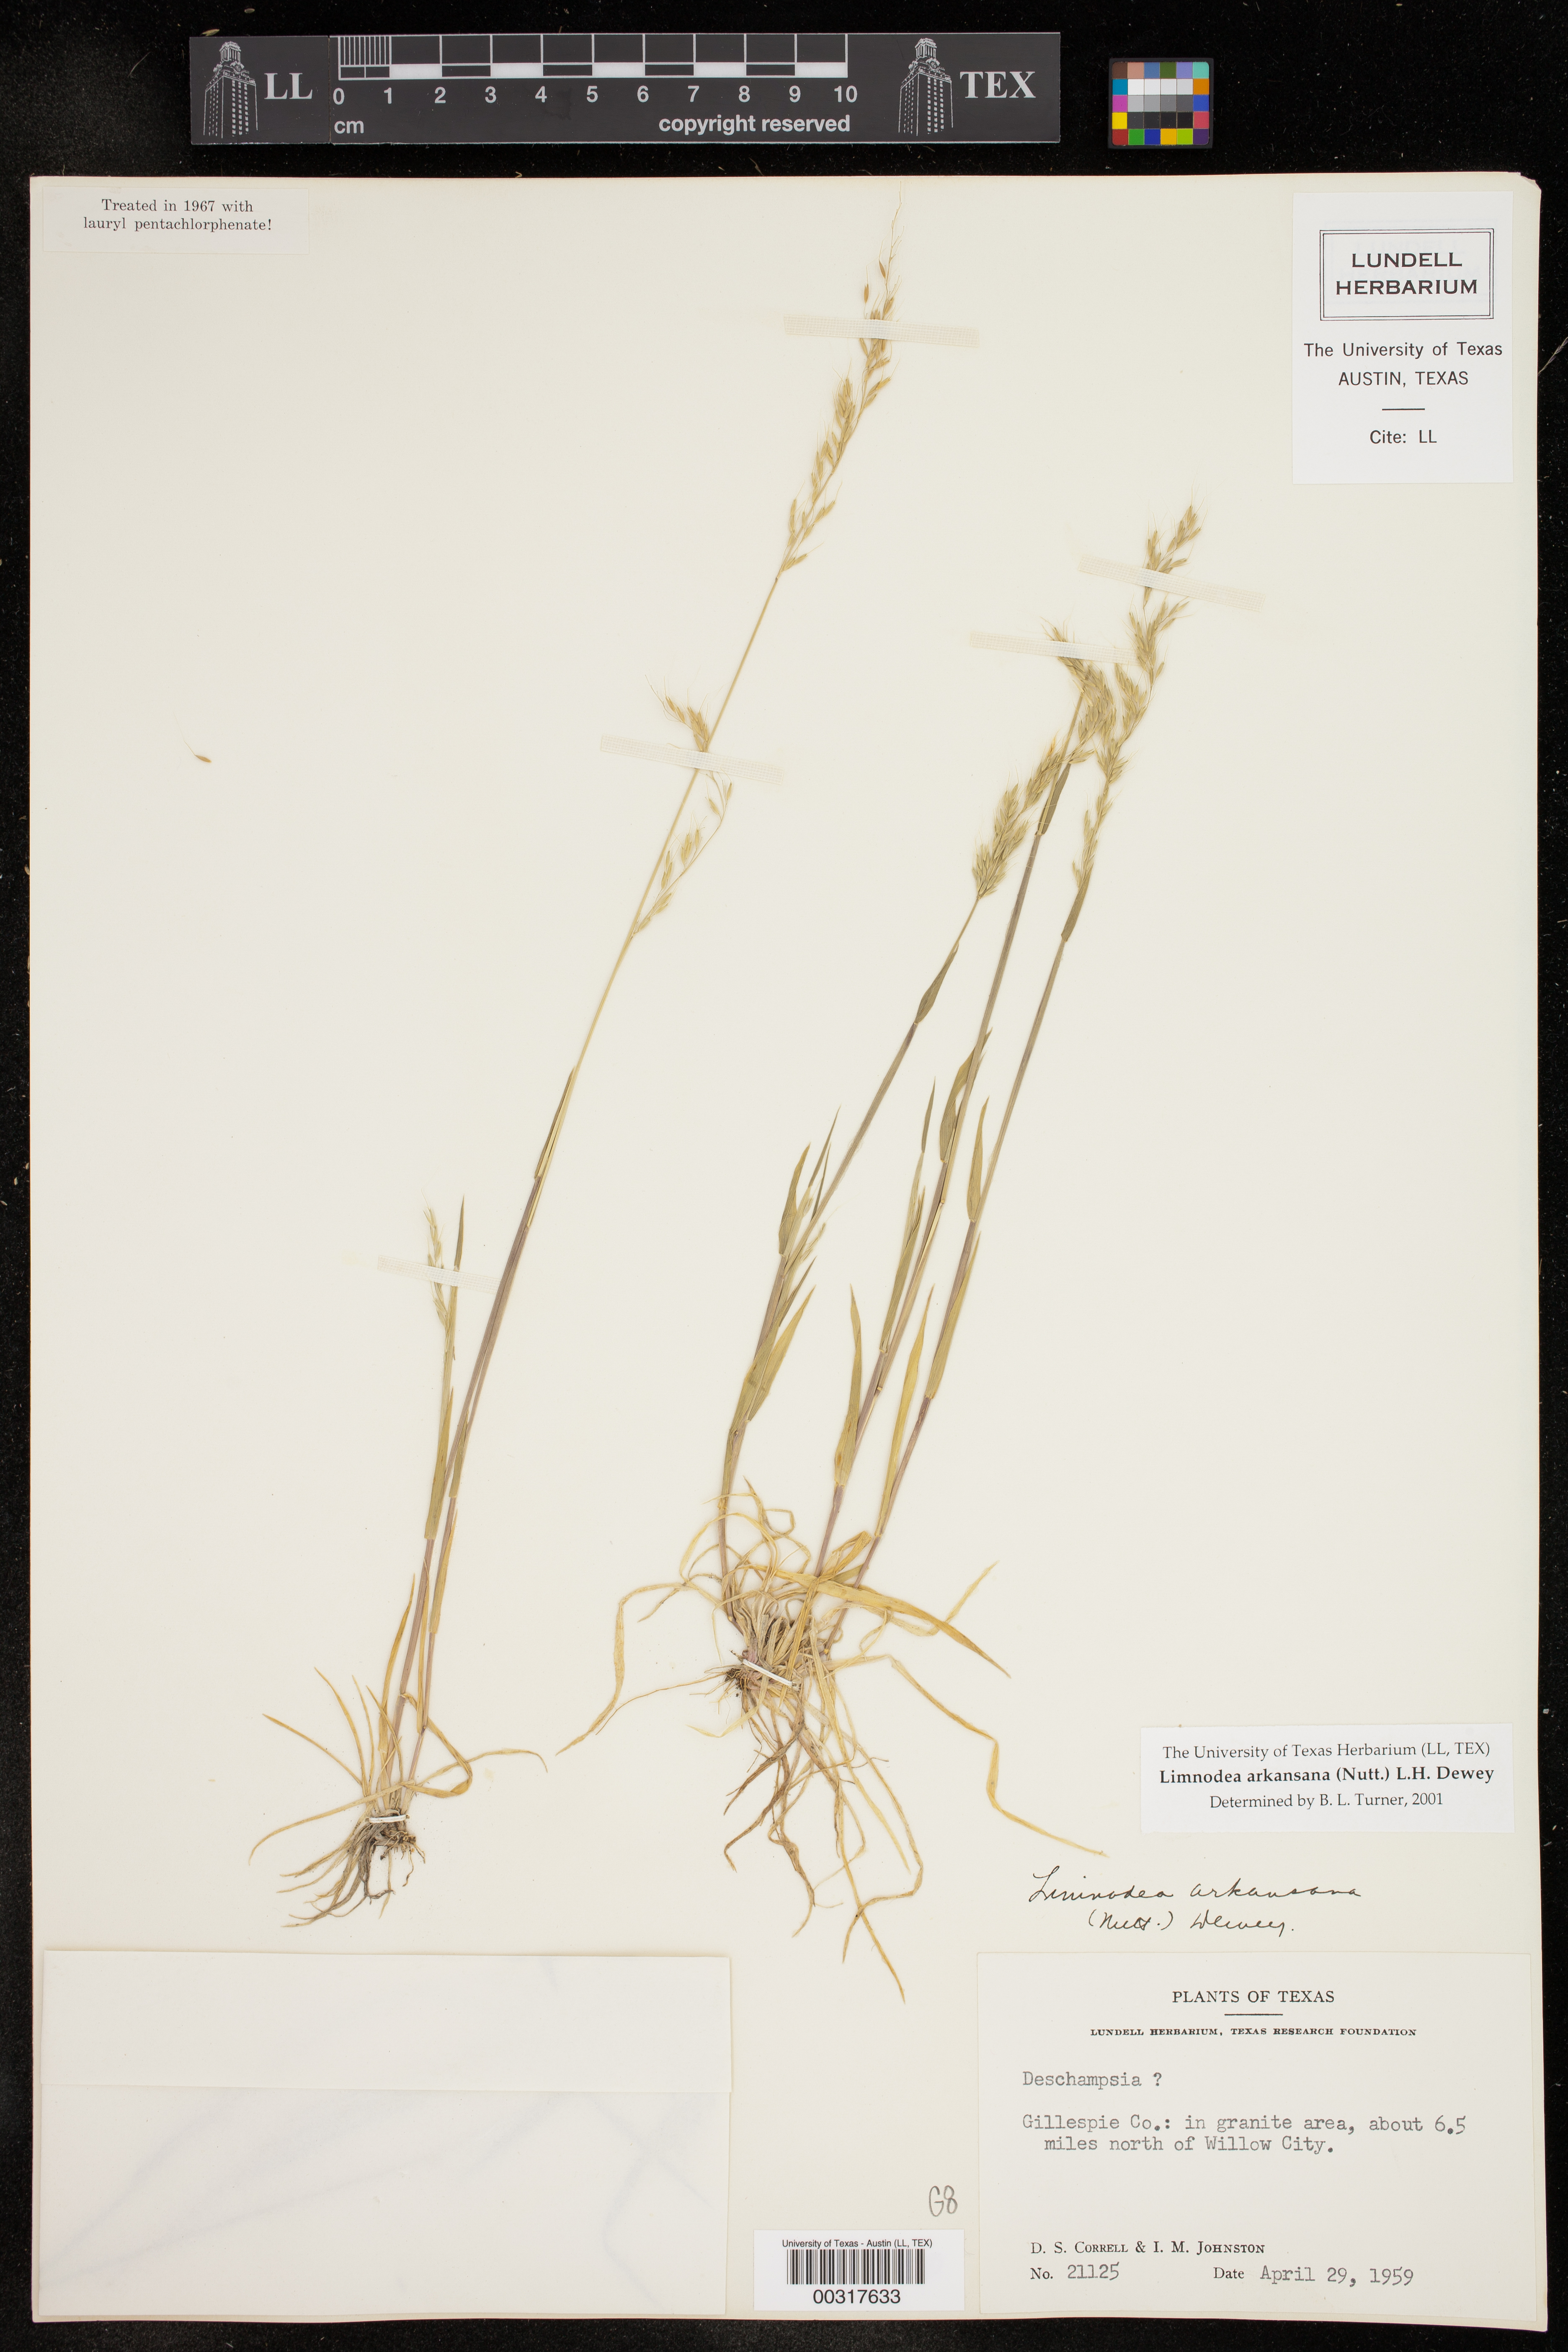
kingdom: Plantae
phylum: Tracheophyta
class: Liliopsida
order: Poales
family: Poaceae
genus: Limnodea
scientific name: Limnodea arkansana
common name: Ozark-grass
